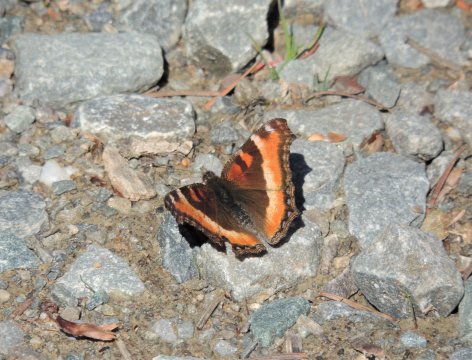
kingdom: Animalia
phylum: Arthropoda
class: Insecta
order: Lepidoptera
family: Nymphalidae
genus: Aglais
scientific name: Aglais milberti
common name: Milbert's Tortoiseshell
